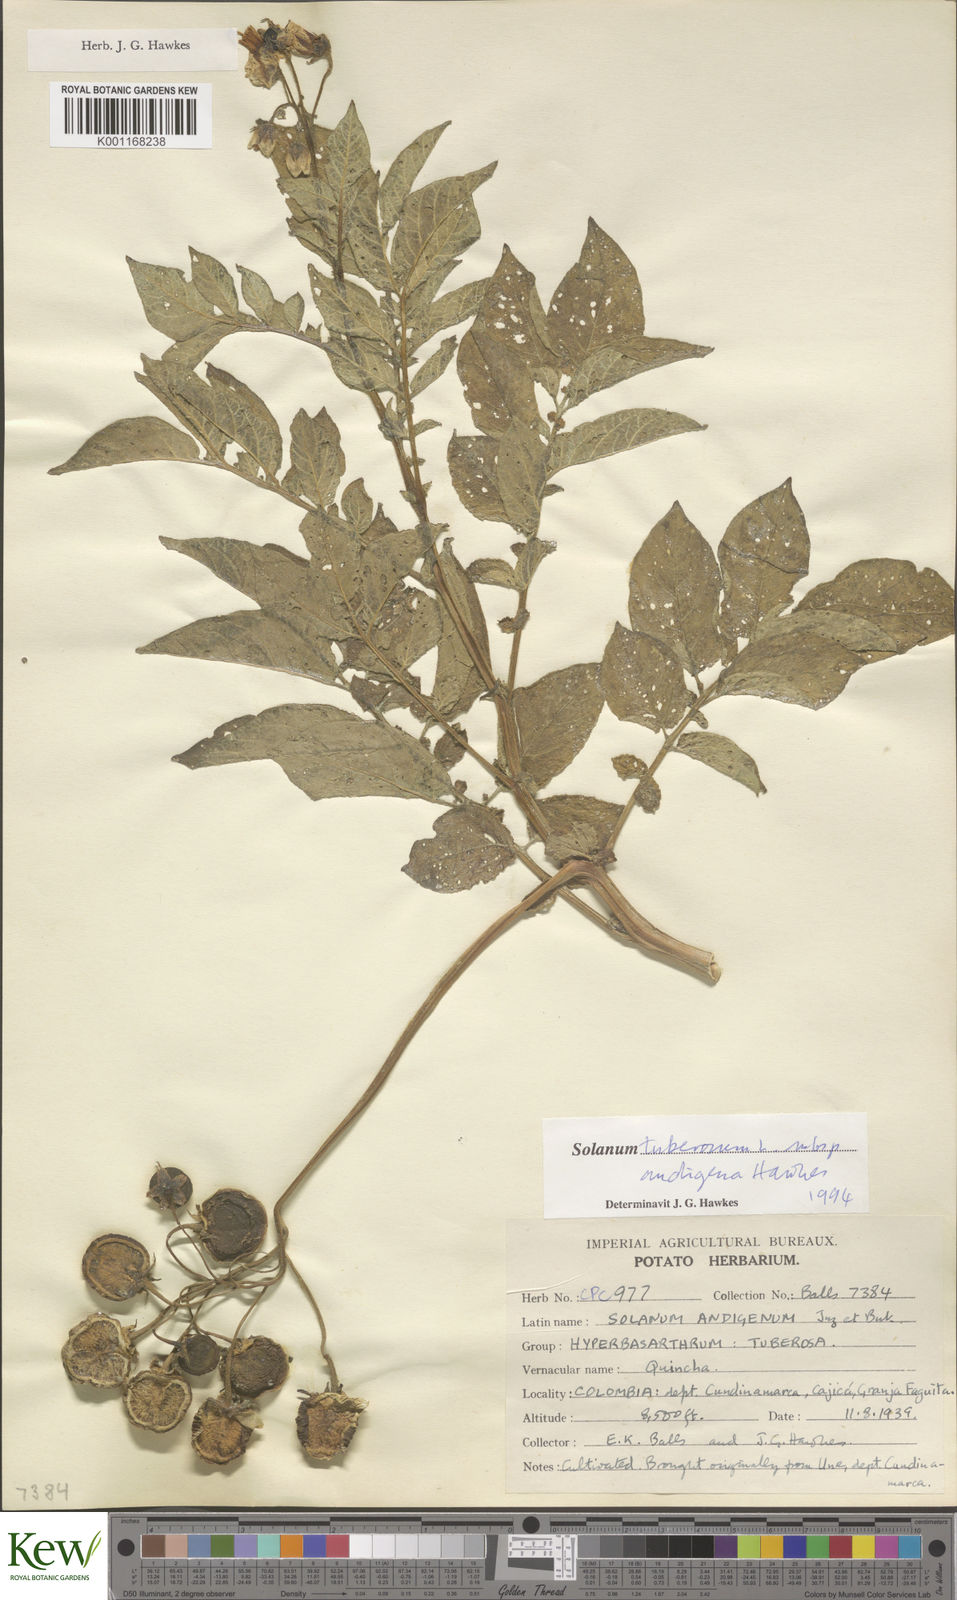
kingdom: Plantae
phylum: Tracheophyta
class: Magnoliopsida
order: Solanales
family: Solanaceae
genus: Solanum
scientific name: Solanum tuberosum
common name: Potato
